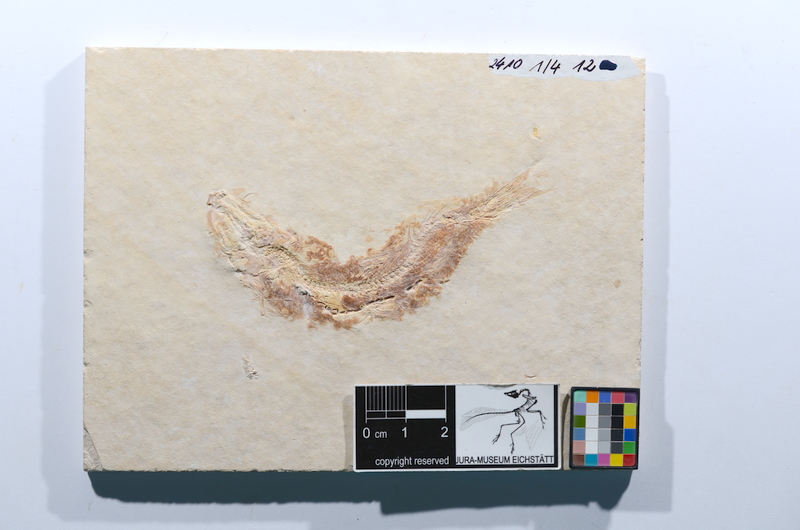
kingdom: Animalia
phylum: Chordata
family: Ascalaboidae
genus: Tharsis
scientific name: Tharsis dubius
